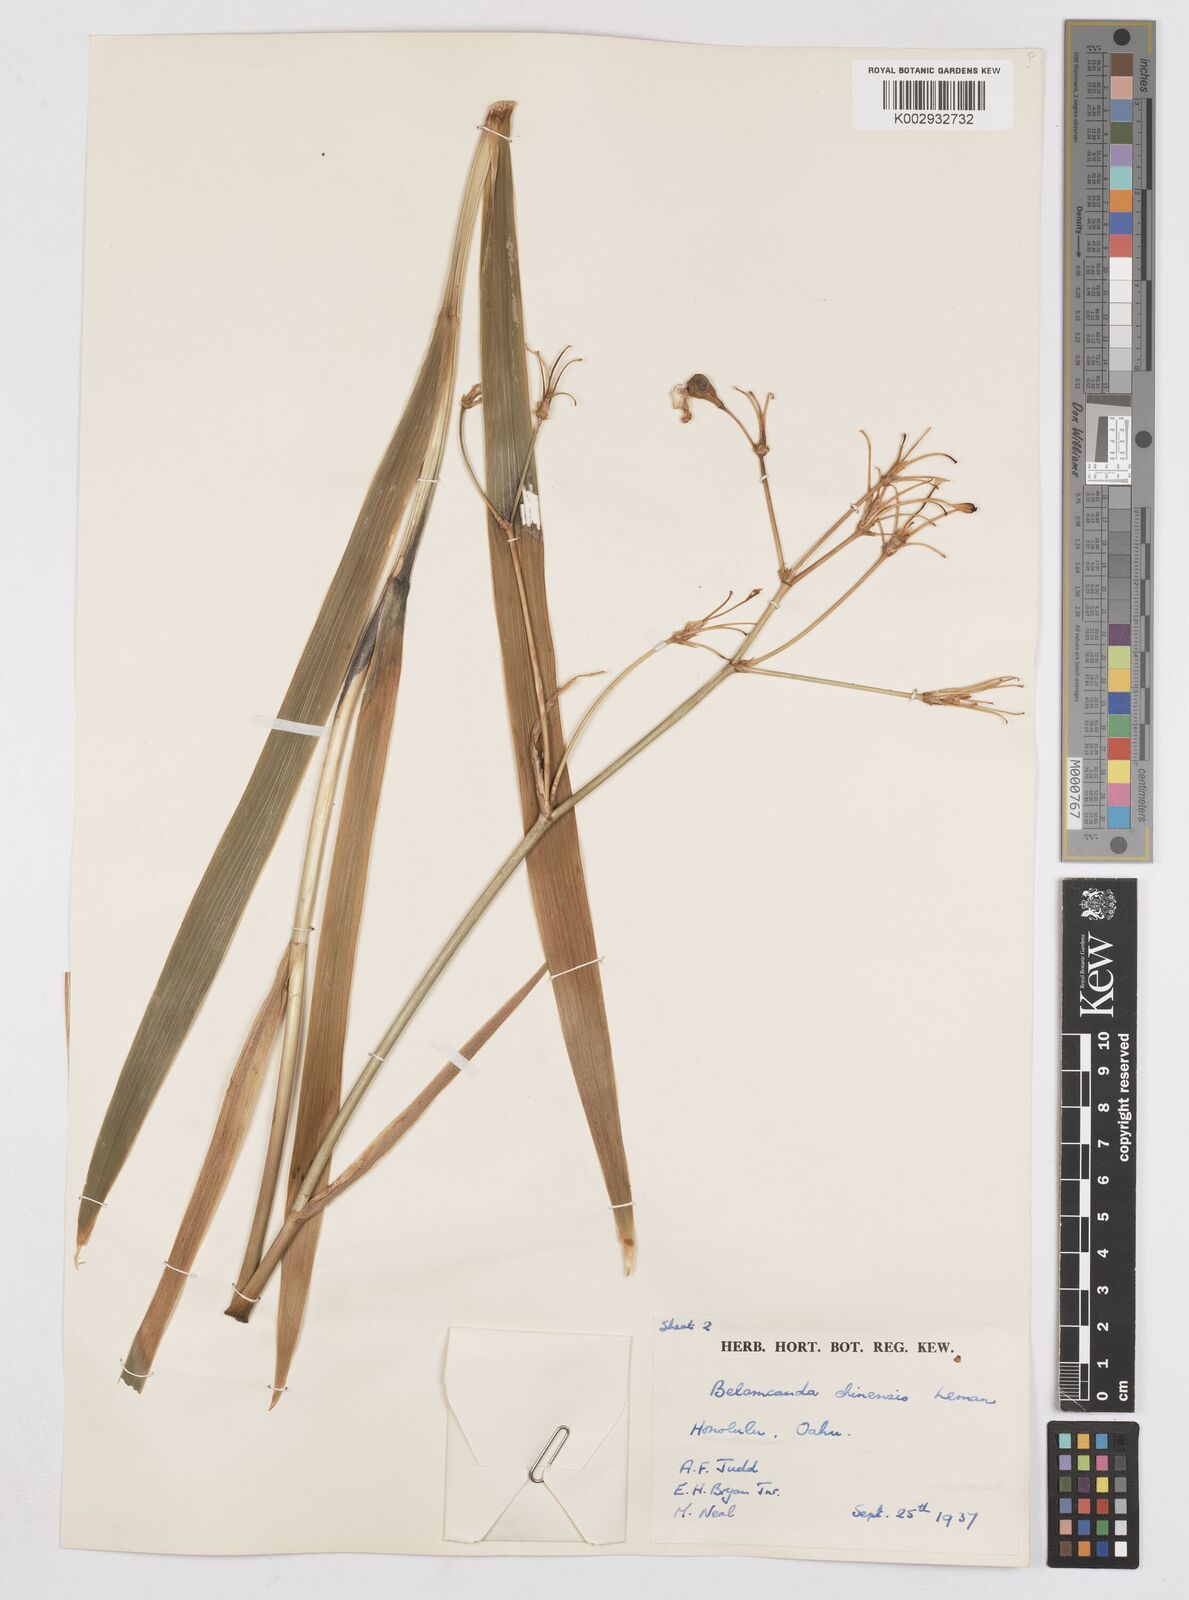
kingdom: Plantae
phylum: Tracheophyta
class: Liliopsida
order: Asparagales
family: Iridaceae
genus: Iris
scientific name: Iris
